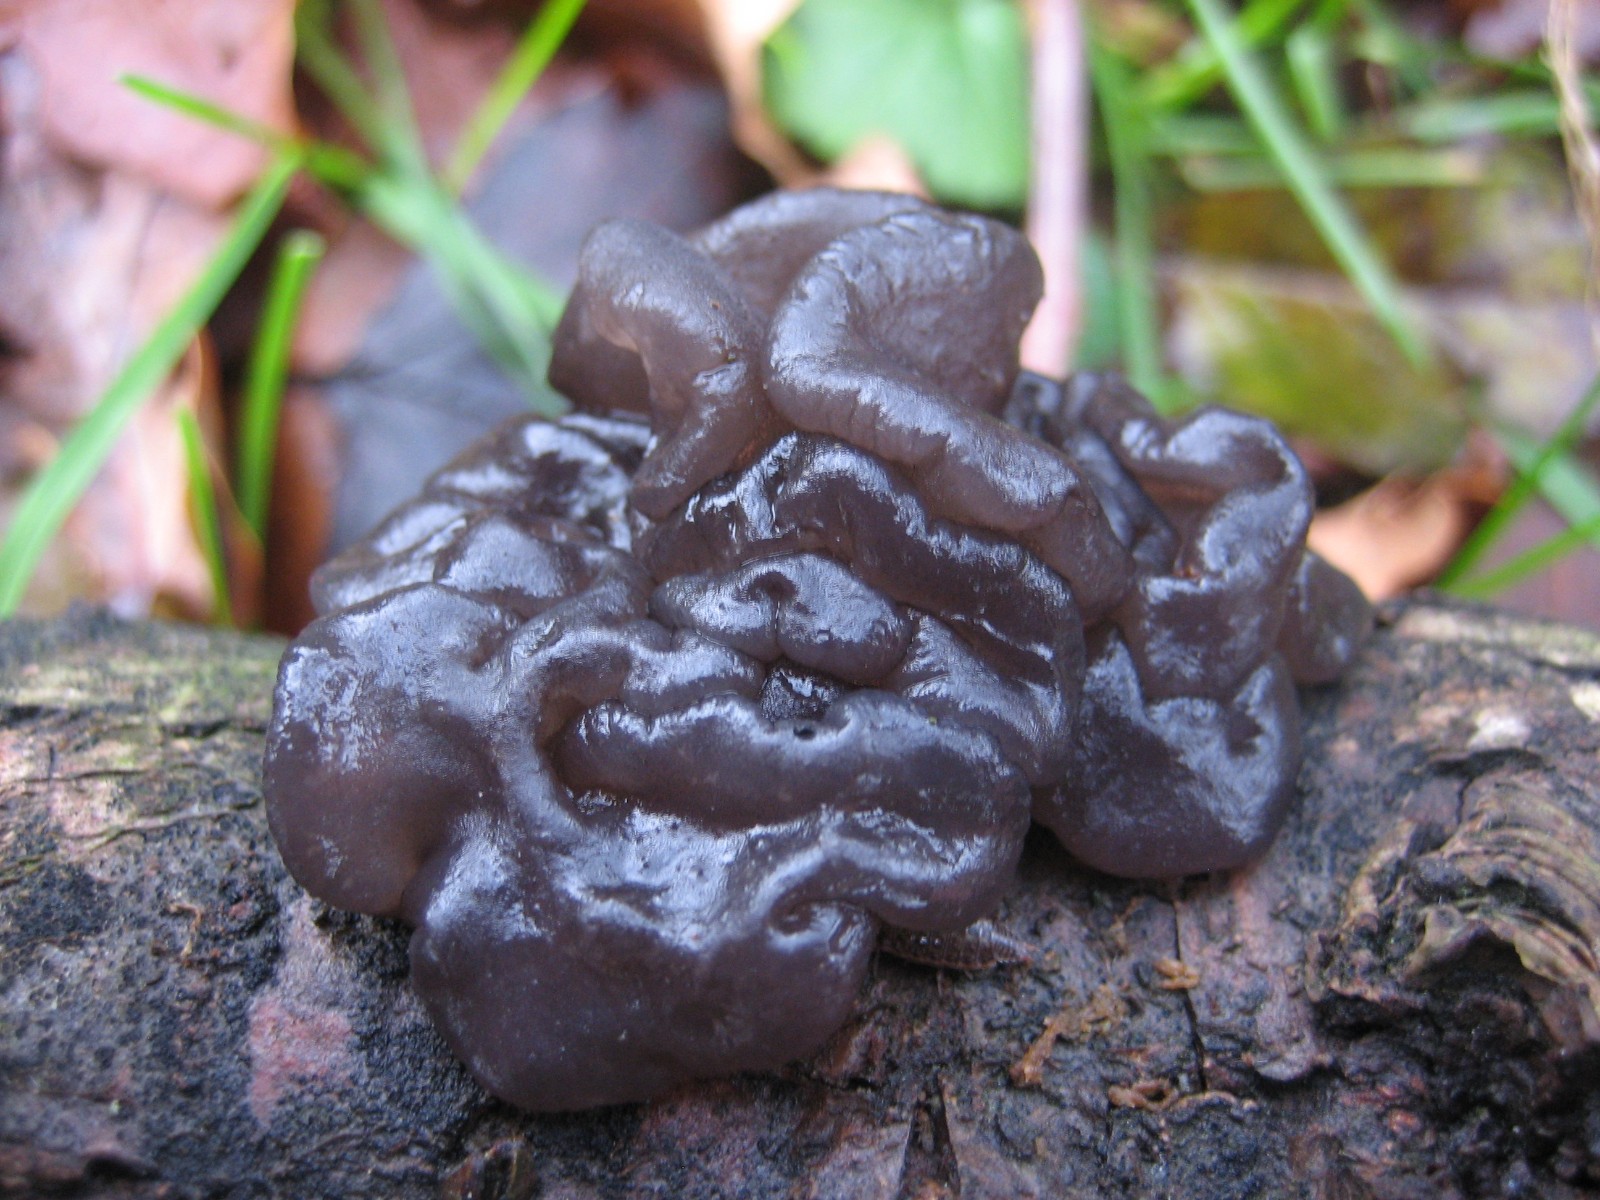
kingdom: Fungi
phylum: Basidiomycota
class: Agaricomycetes
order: Auriculariales
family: Auriculariaceae
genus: Exidia
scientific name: Exidia glandulosa
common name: ege-bævretop
